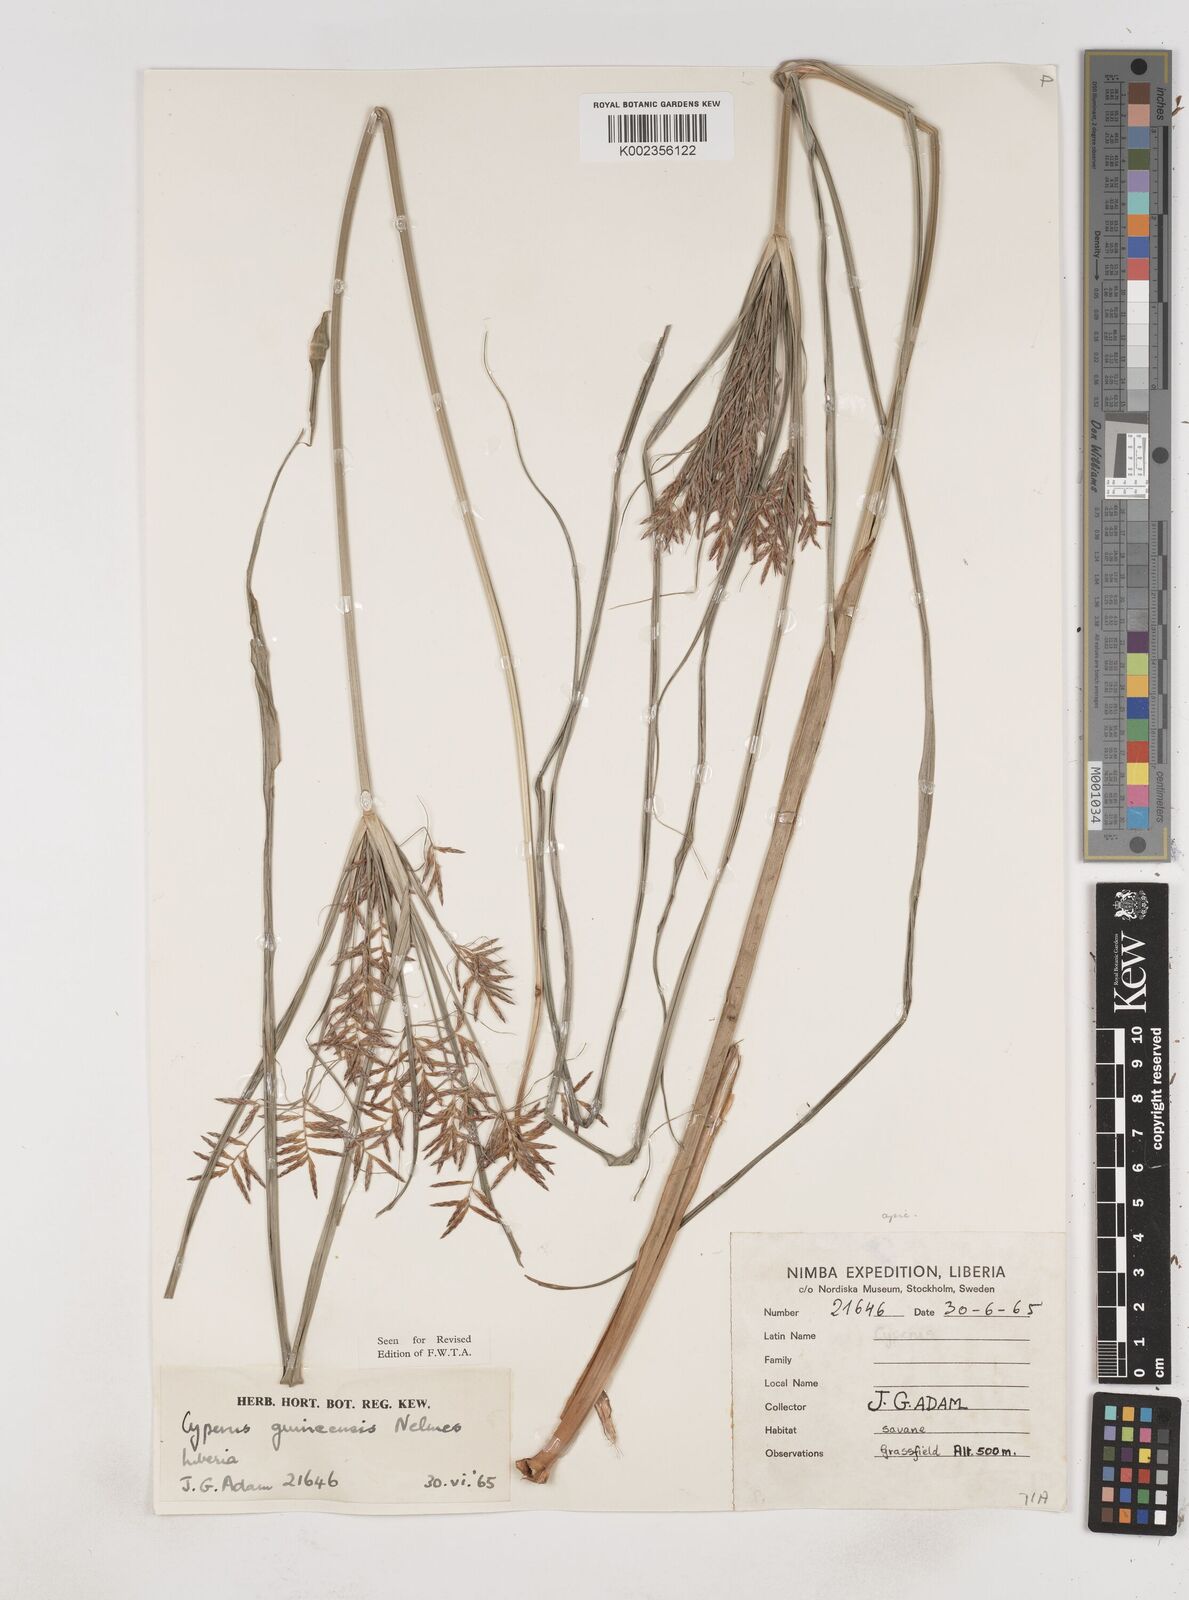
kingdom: Plantae
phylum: Tracheophyta
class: Liliopsida
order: Poales
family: Cyperaceae
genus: Cyperus
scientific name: Cyperus tenuiculmis
